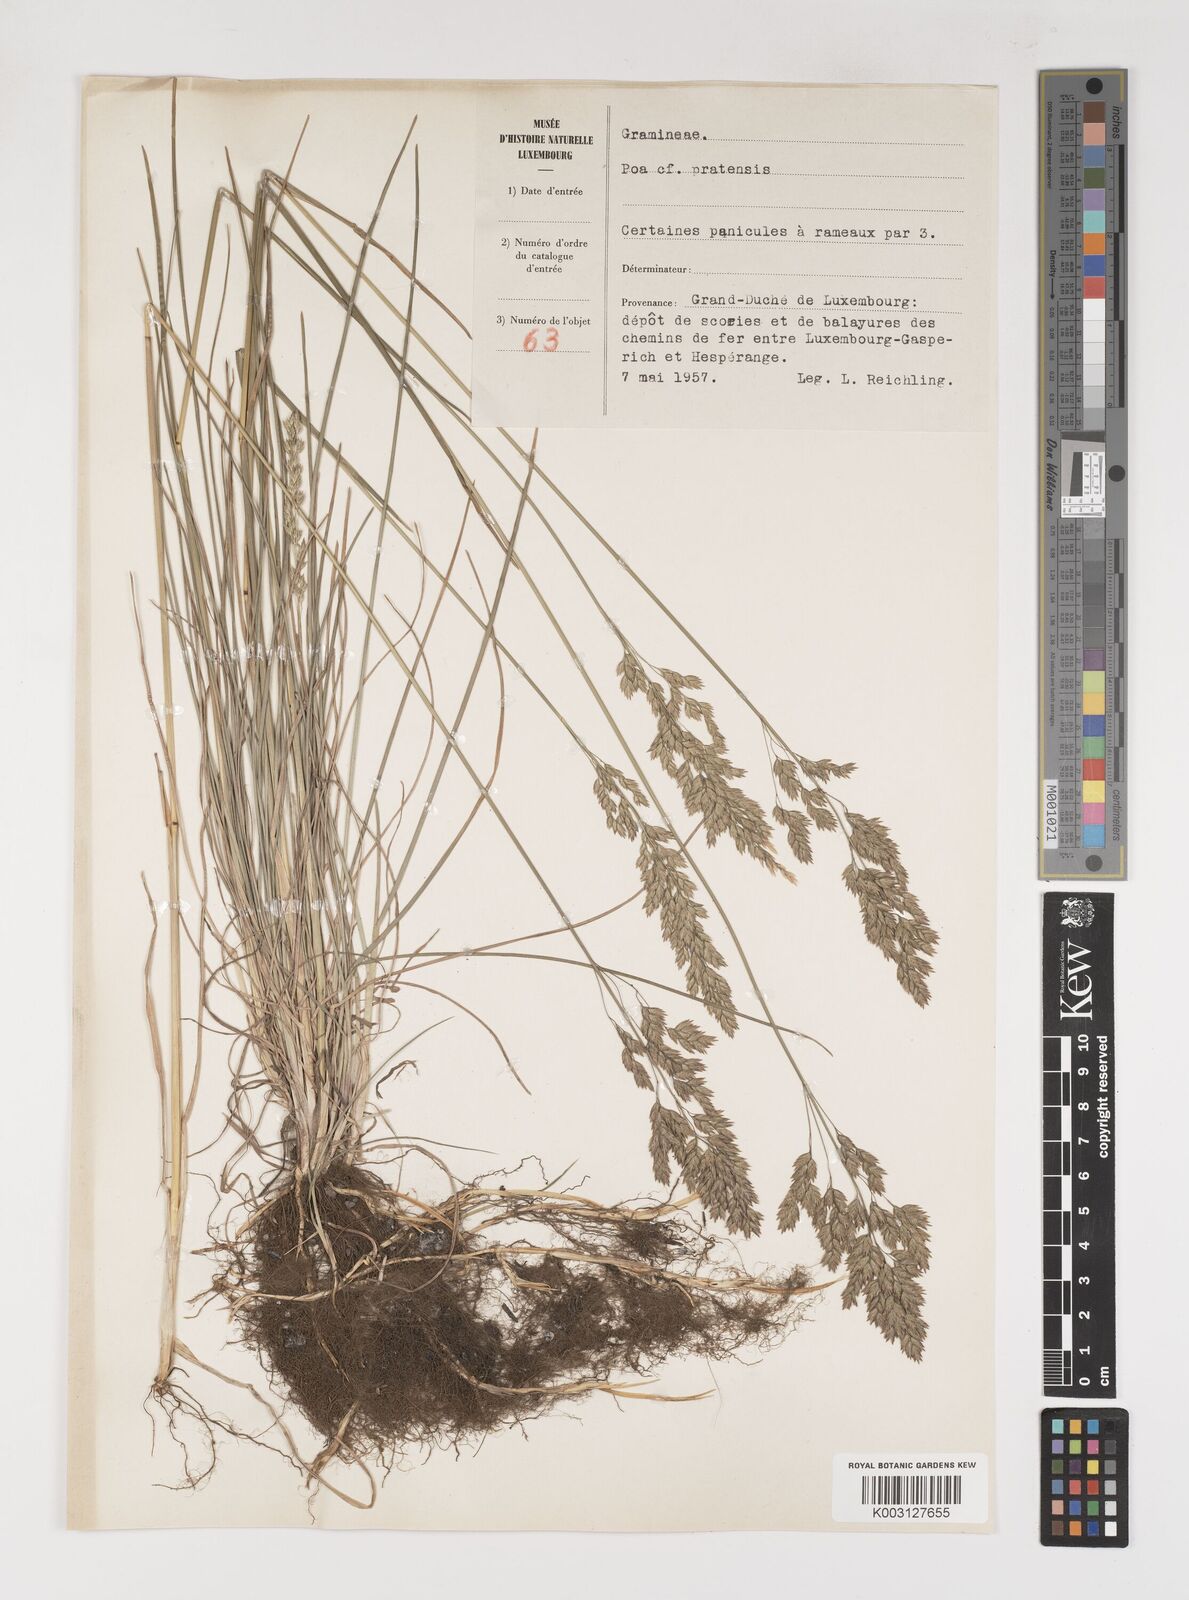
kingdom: Plantae
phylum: Tracheophyta
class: Liliopsida
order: Poales
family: Poaceae
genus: Poa
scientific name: Poa
